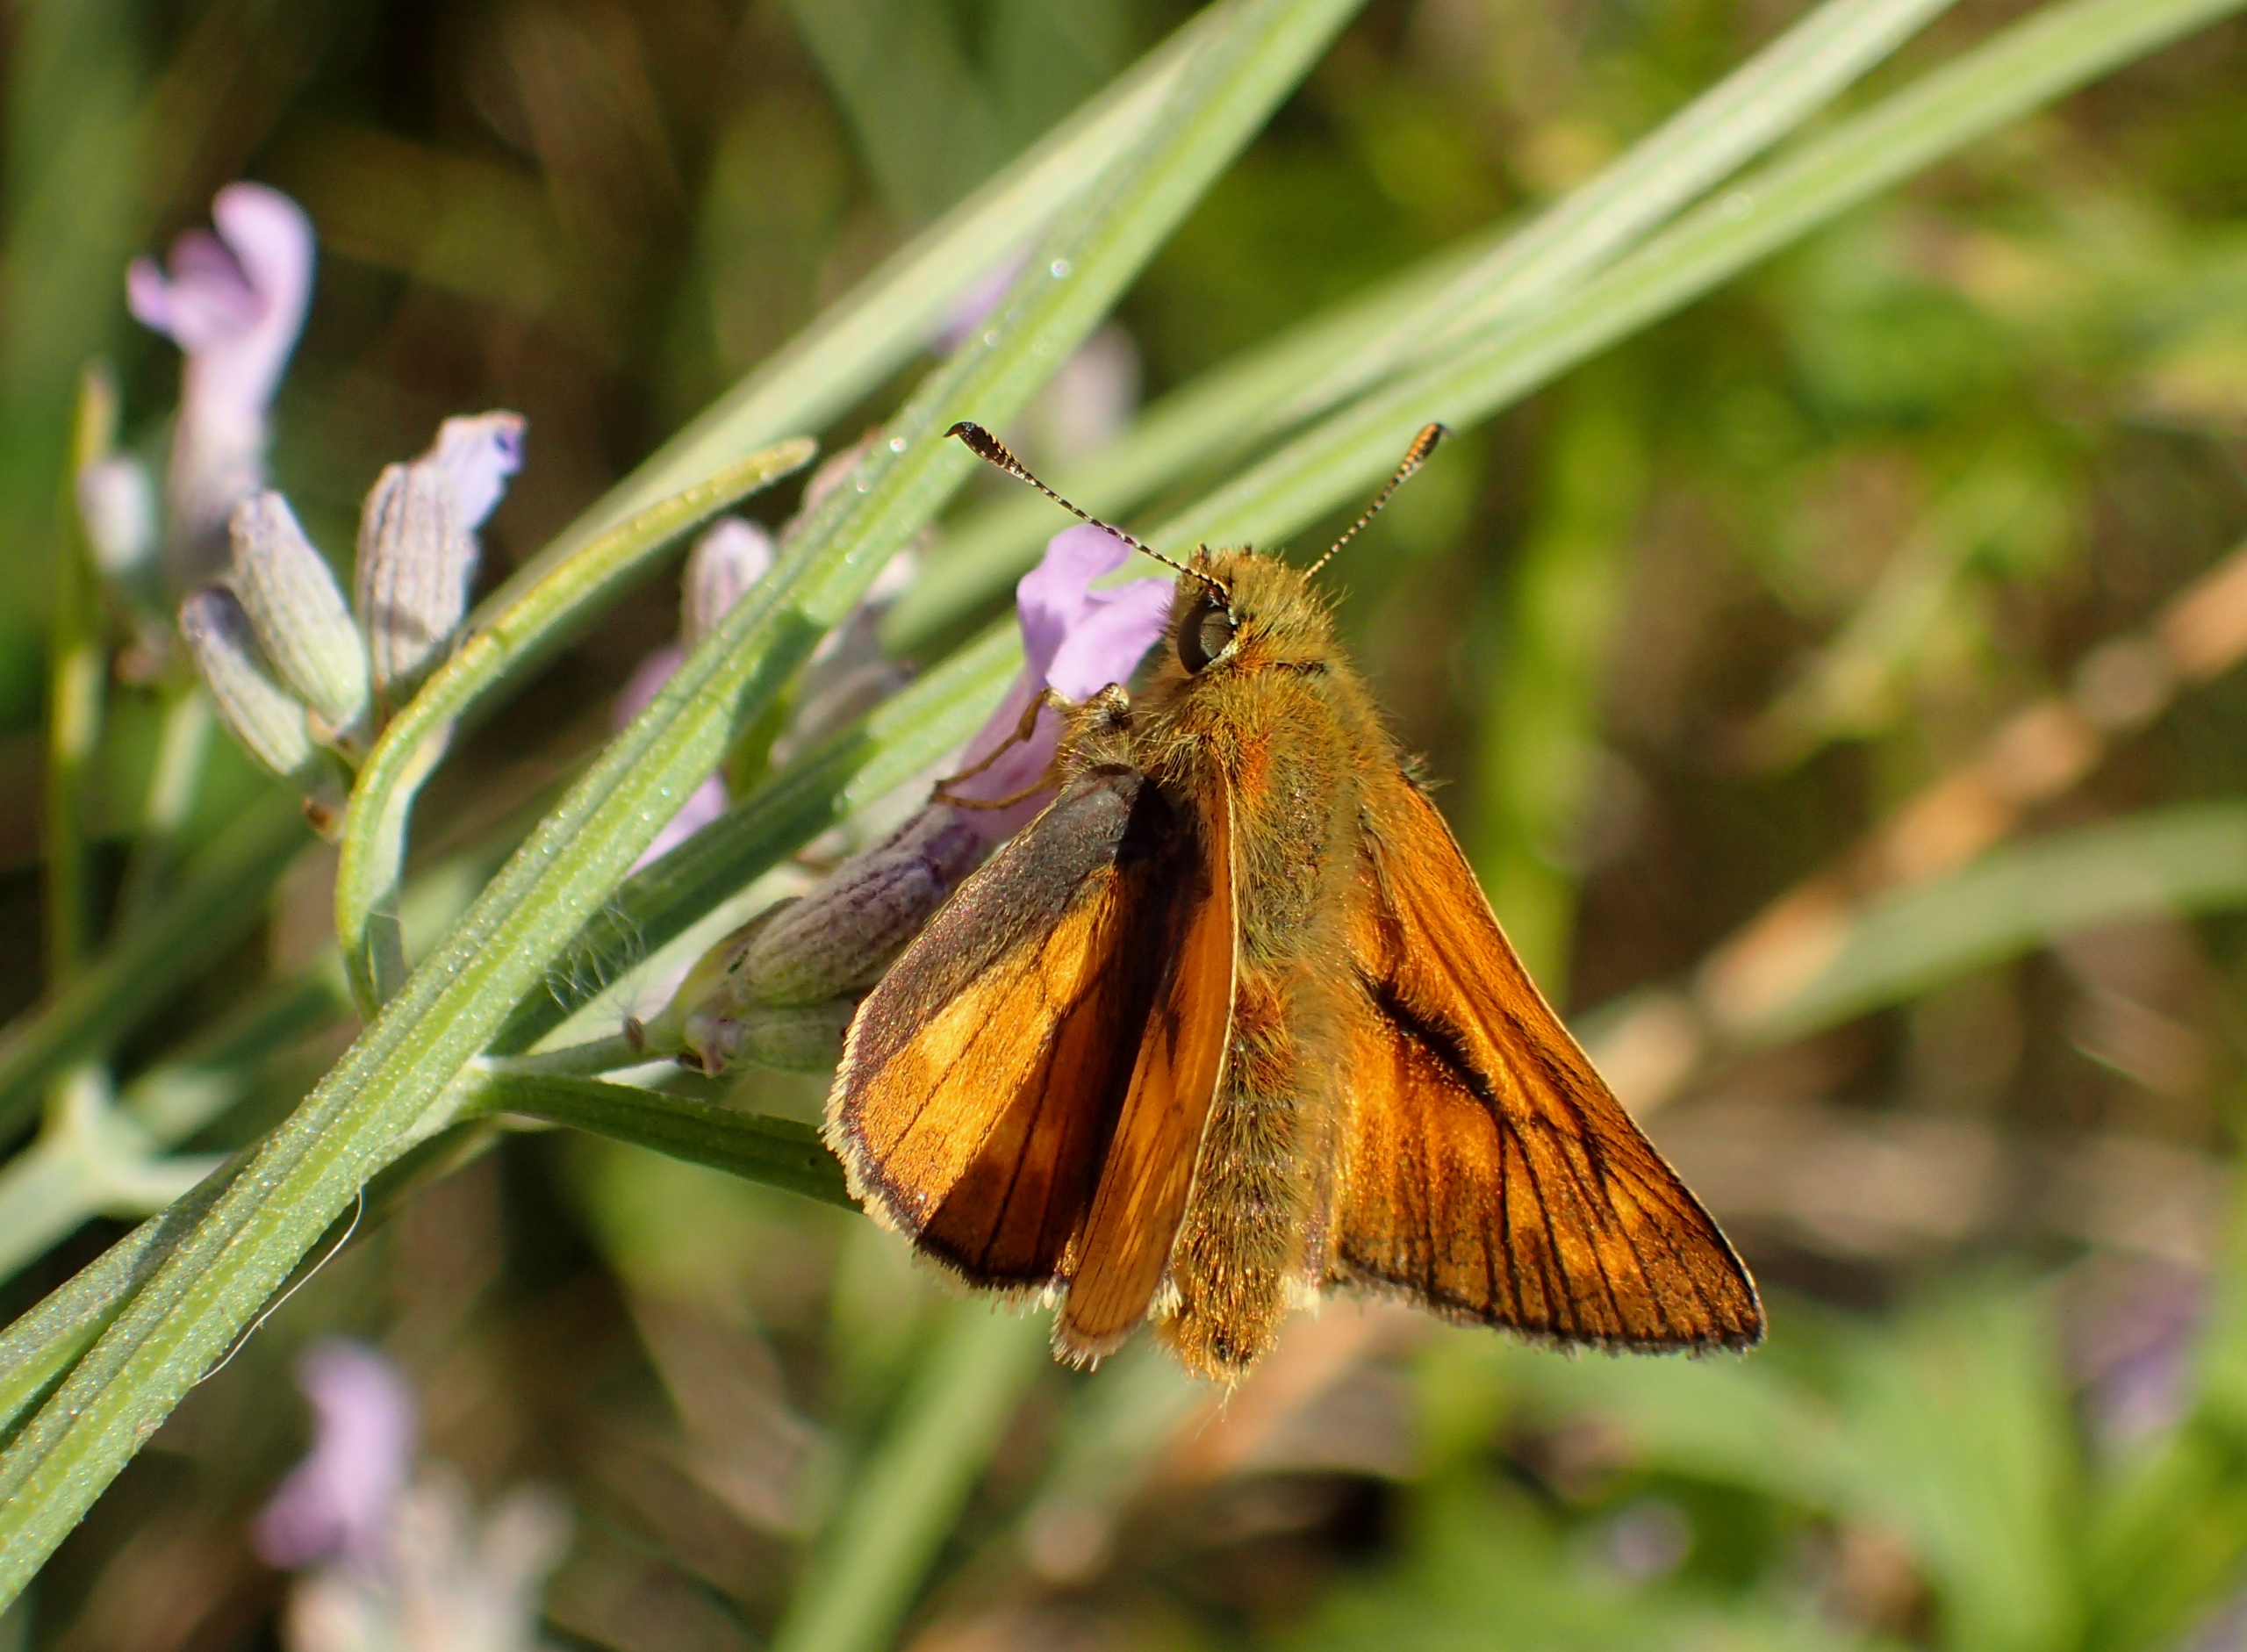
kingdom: Animalia
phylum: Arthropoda
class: Insecta
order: Lepidoptera
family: Hesperiidae
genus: Ochlodes
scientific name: Ochlodes venata
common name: Stor bredpande
